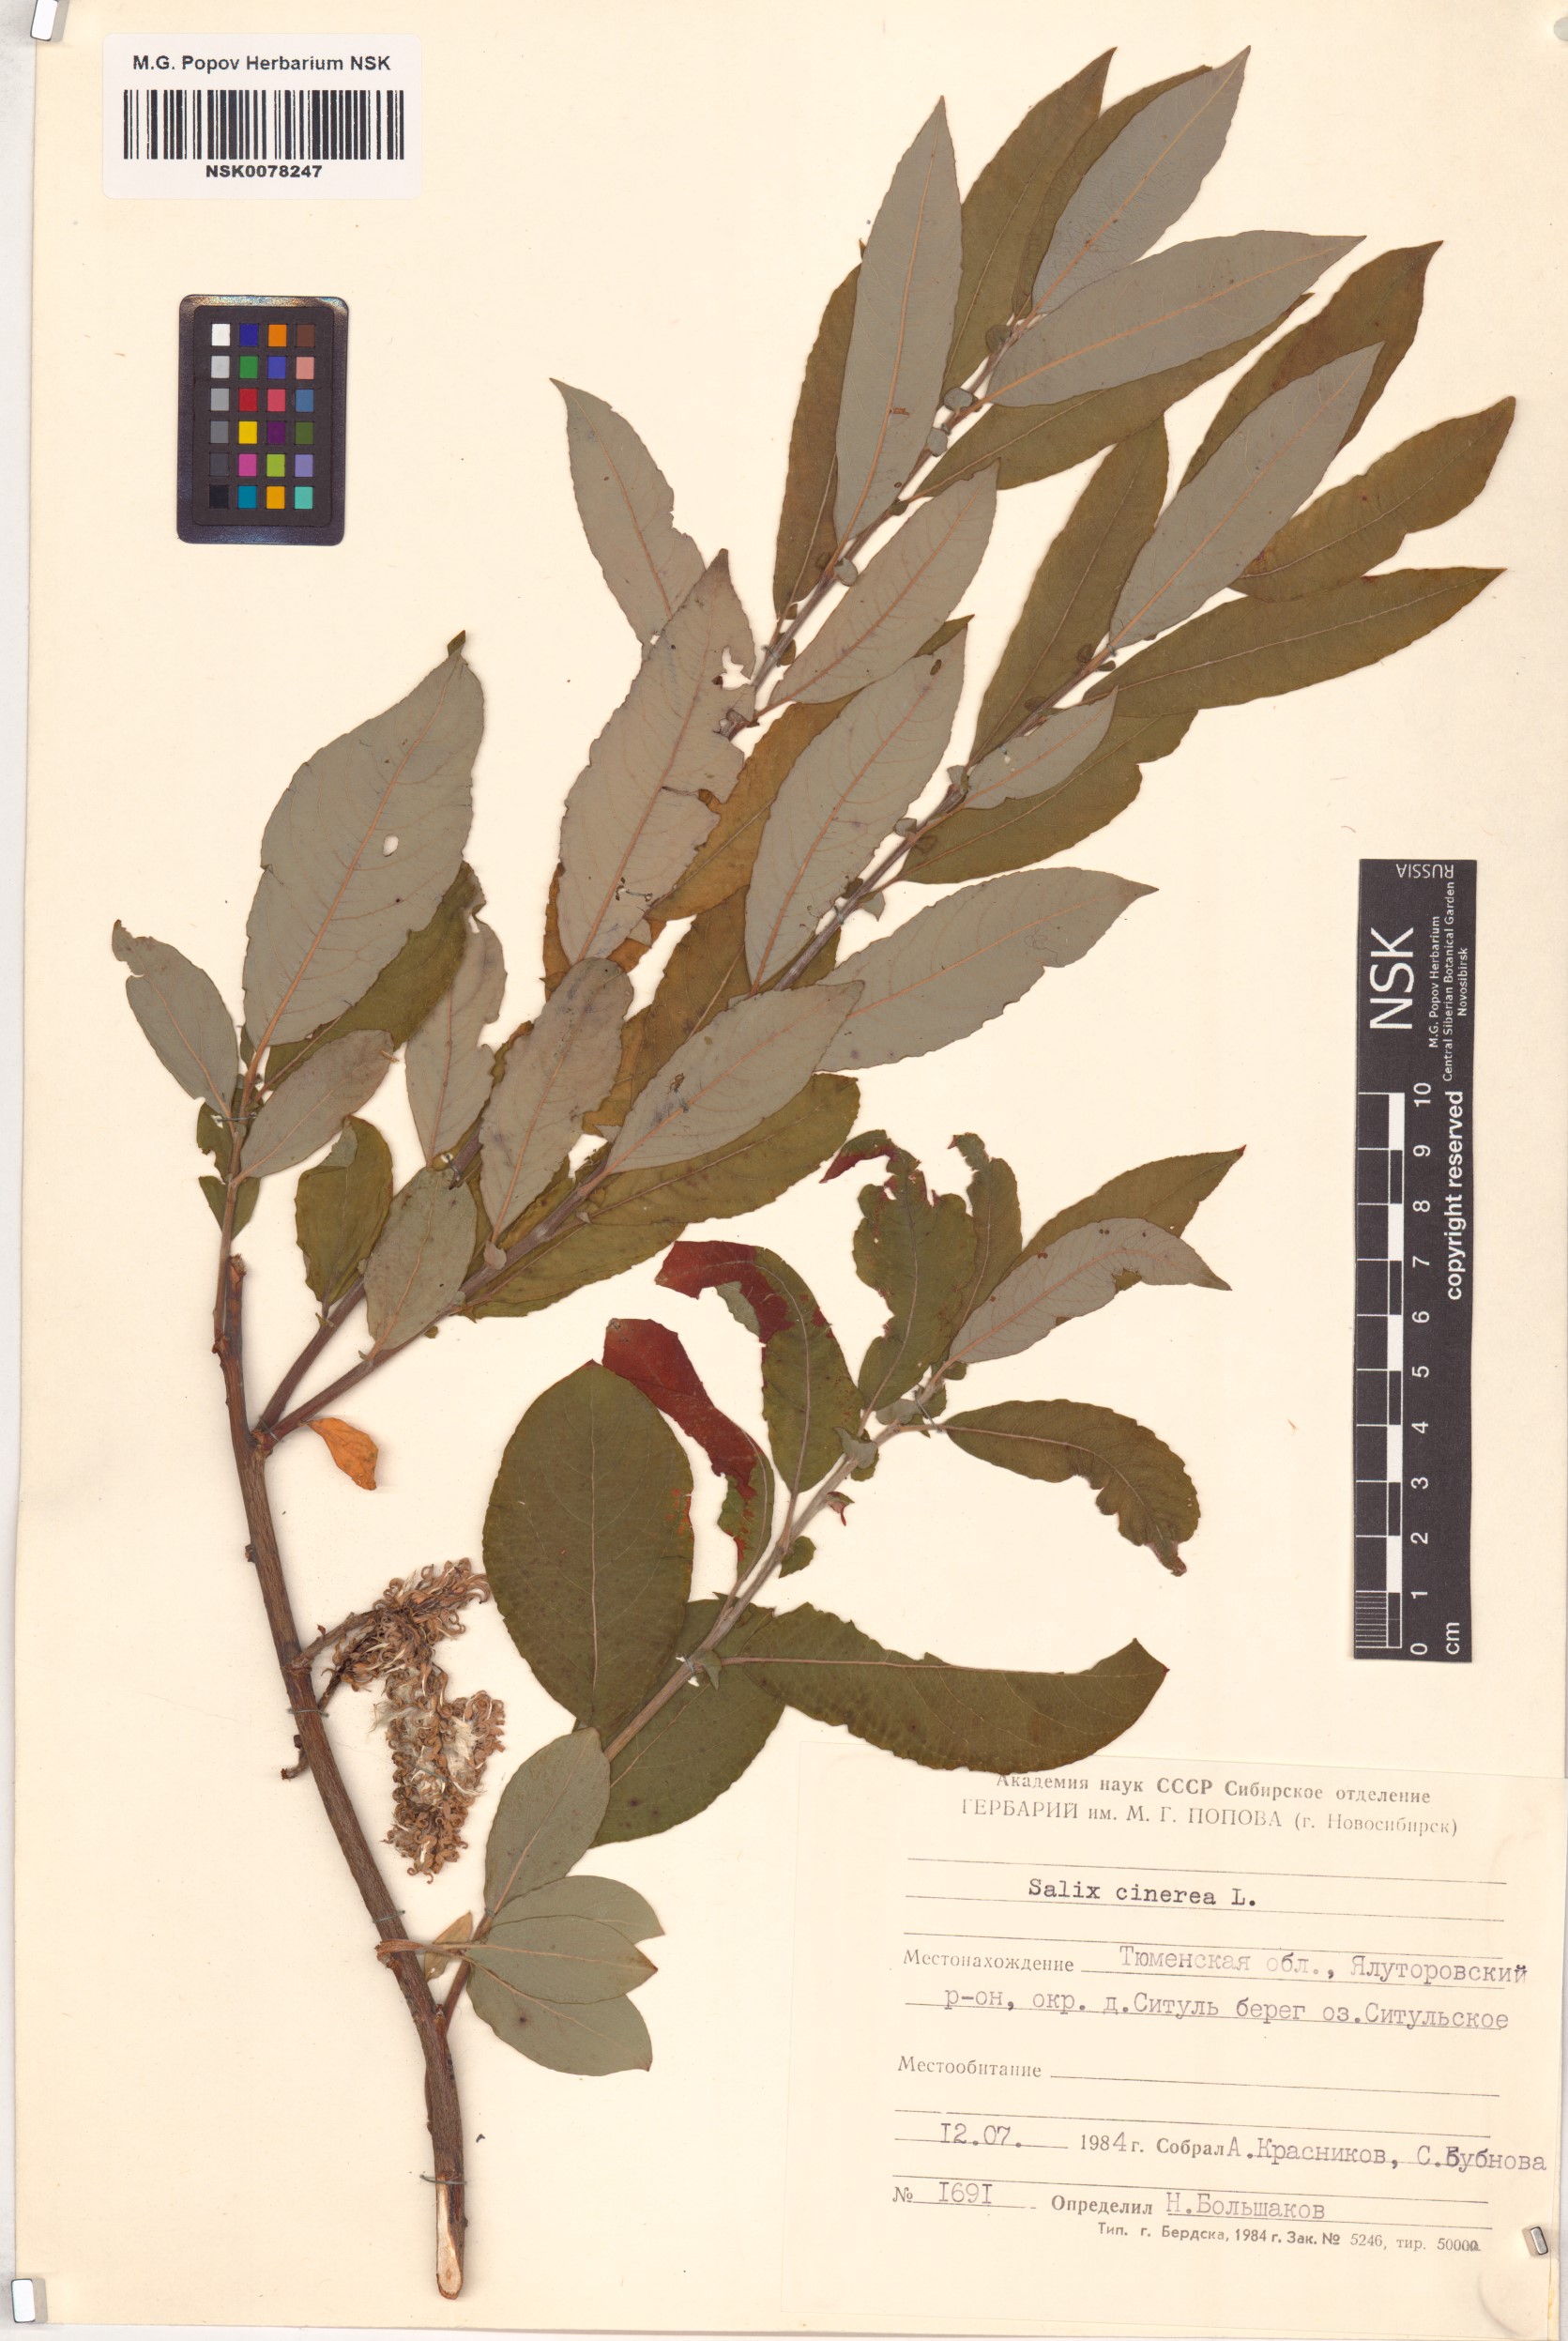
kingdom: Plantae
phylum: Tracheophyta
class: Magnoliopsida
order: Malpighiales
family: Salicaceae
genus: Salix
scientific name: Salix cinerea
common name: Common sallow
